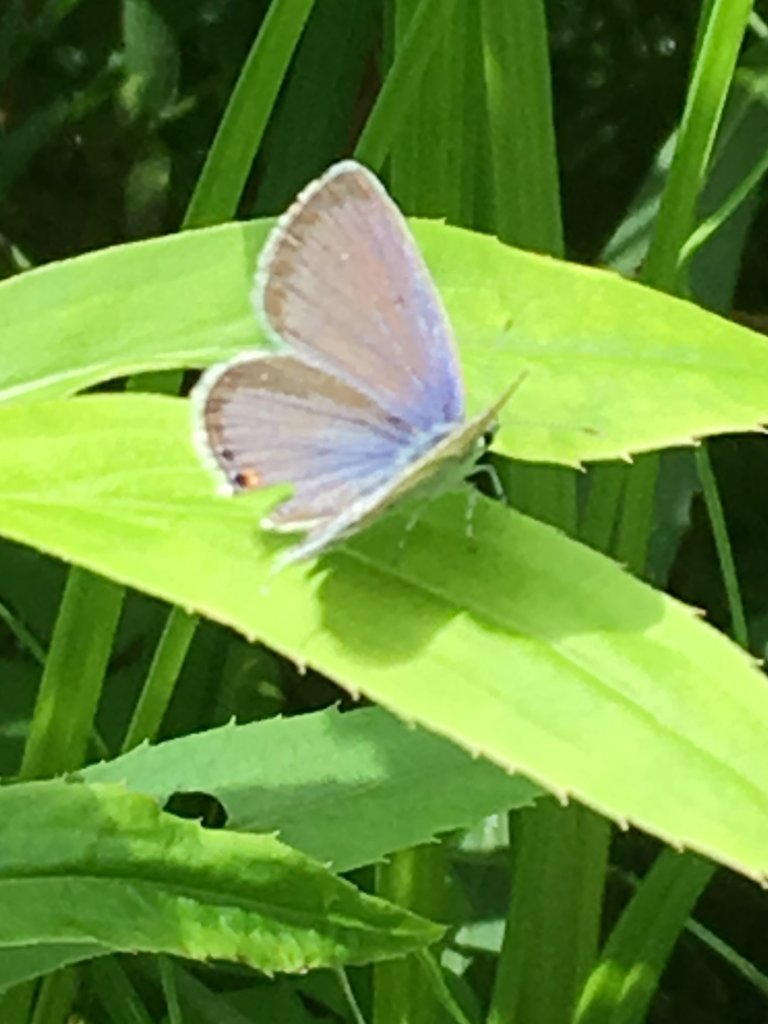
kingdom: Animalia
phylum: Arthropoda
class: Insecta
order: Lepidoptera
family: Lycaenidae
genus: Elkalyce
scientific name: Elkalyce comyntas
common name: Eastern Tailed-Blue
